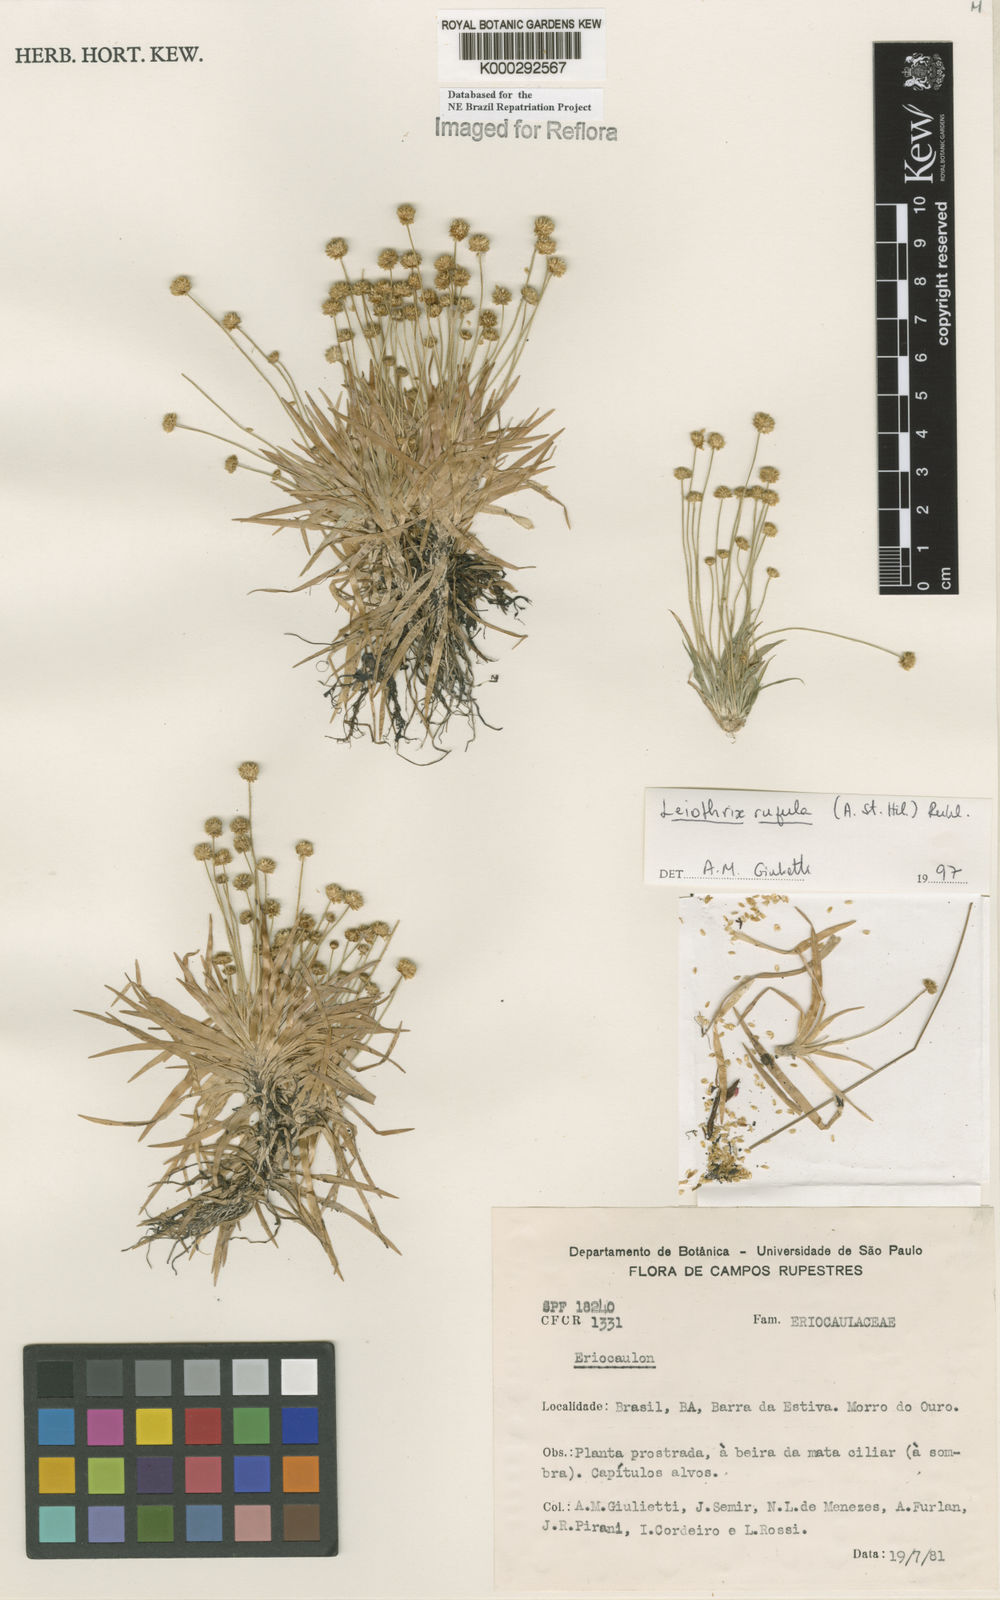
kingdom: Plantae
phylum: Tracheophyta
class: Liliopsida
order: Poales
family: Eriocaulaceae
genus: Leiothrix
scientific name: Leiothrix rufula
